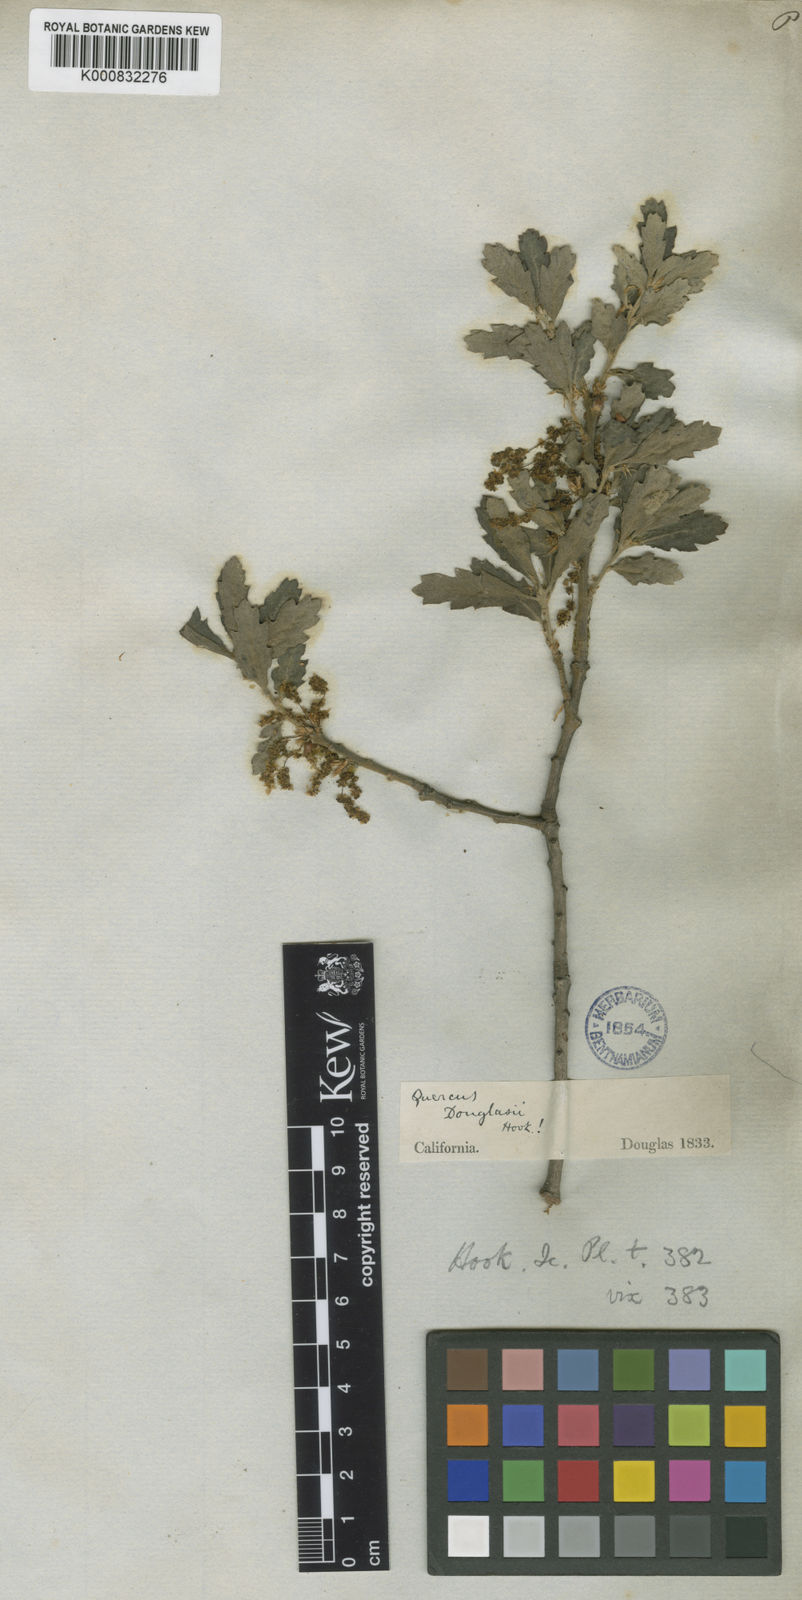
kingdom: Plantae
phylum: Tracheophyta
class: Magnoliopsida
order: Fagales
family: Fagaceae
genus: Quercus
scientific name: Quercus douglasii
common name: Blue oak
